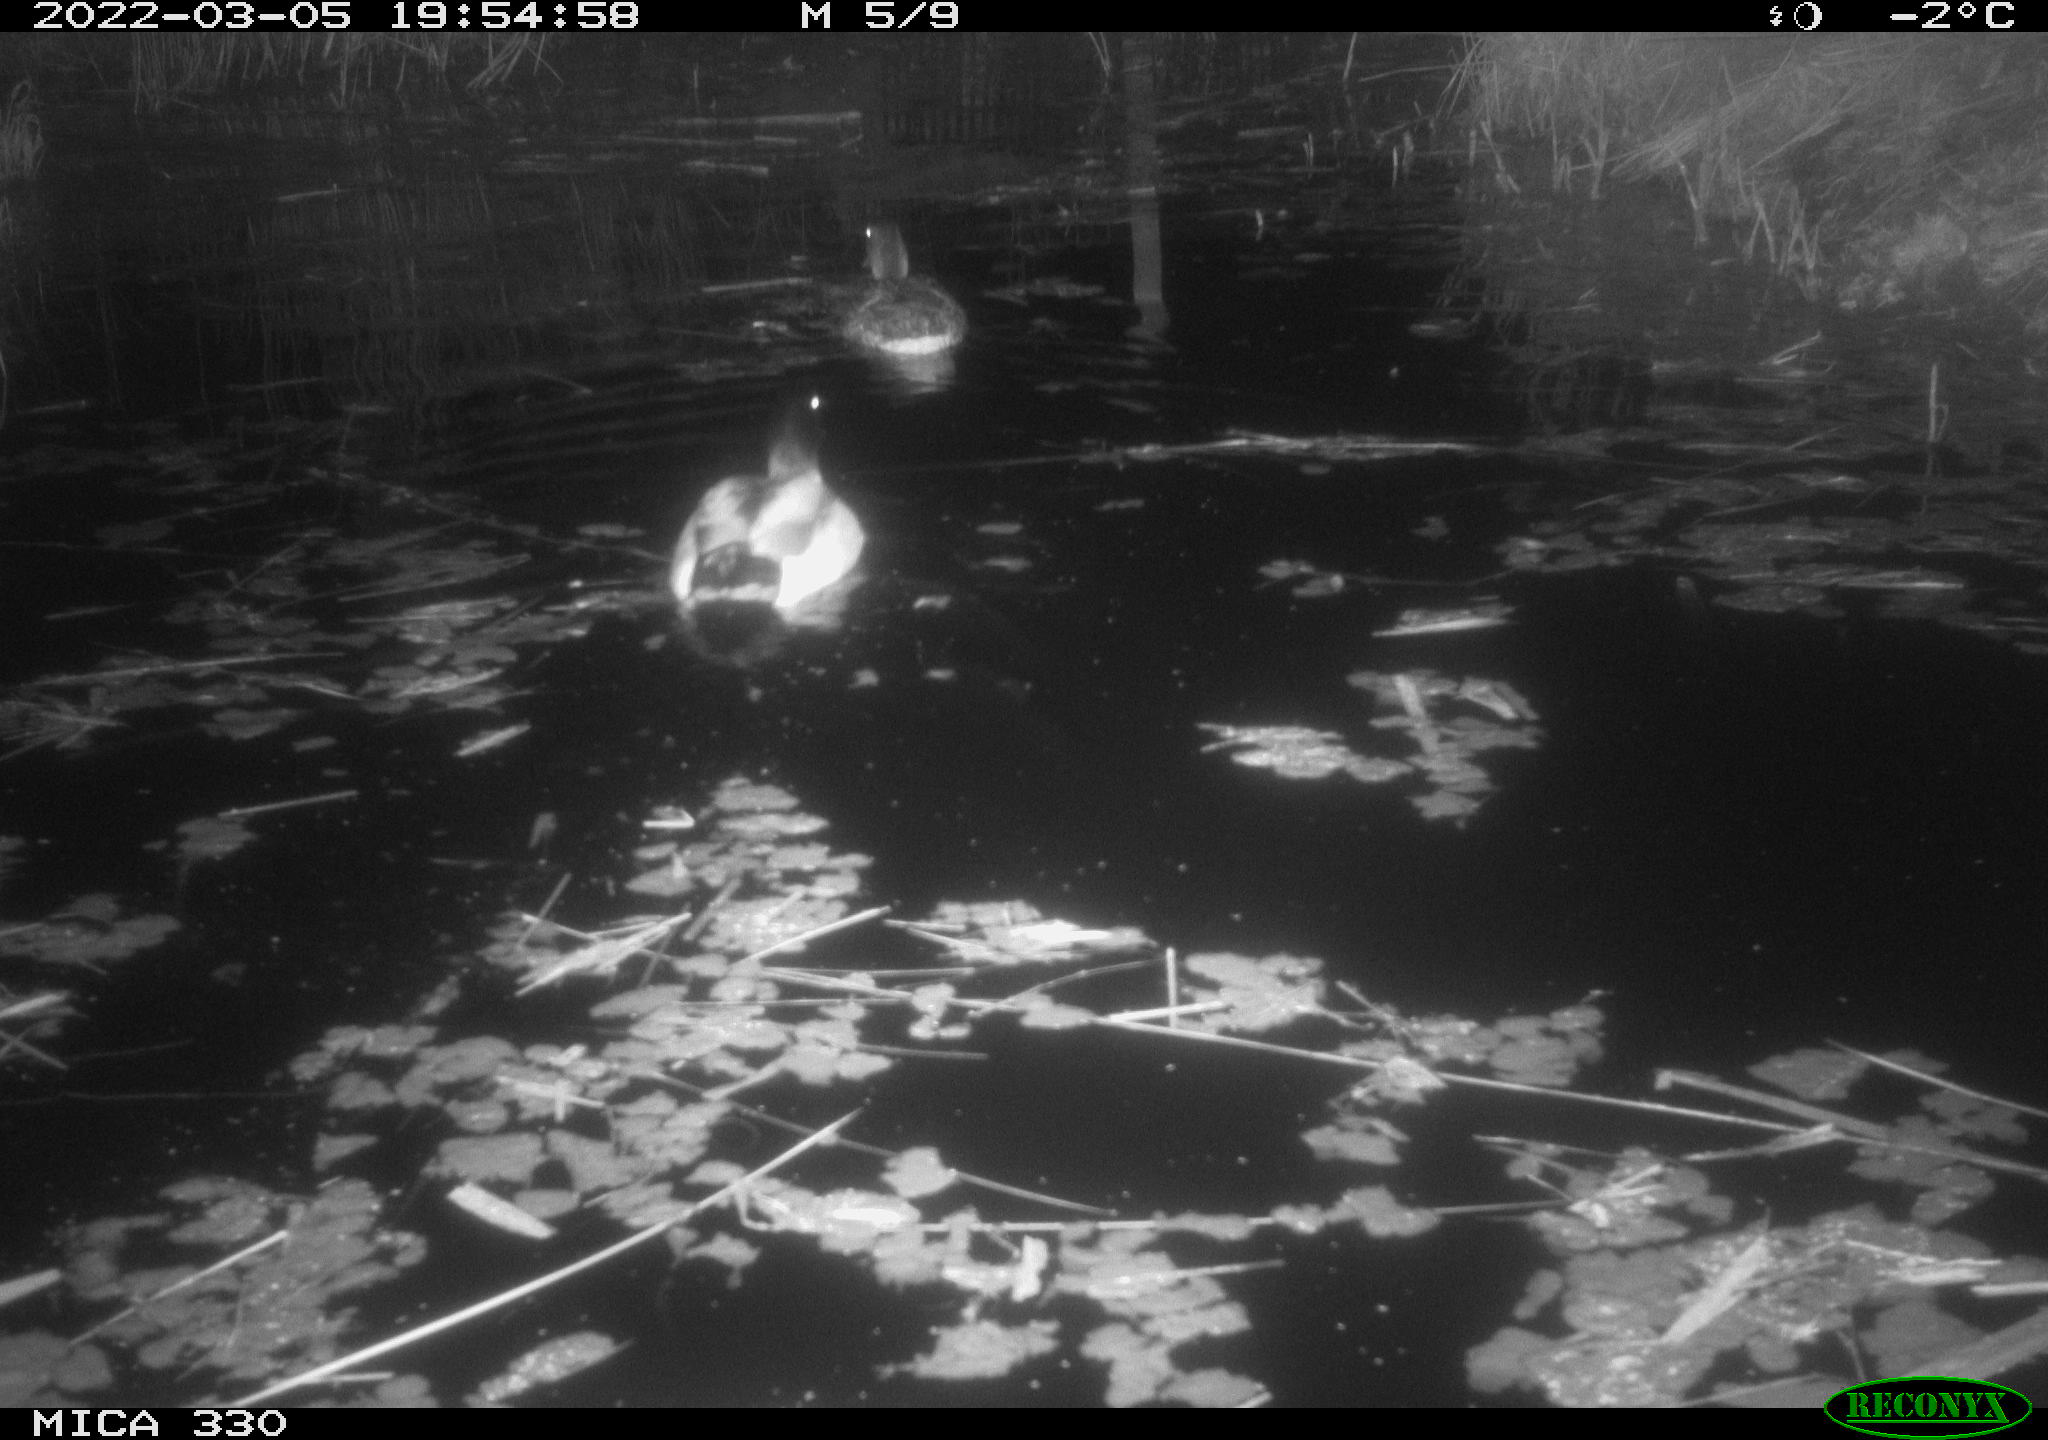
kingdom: Animalia
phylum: Chordata
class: Aves
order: Anseriformes
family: Anatidae
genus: Anas
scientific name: Anas platyrhynchos
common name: Mallard
